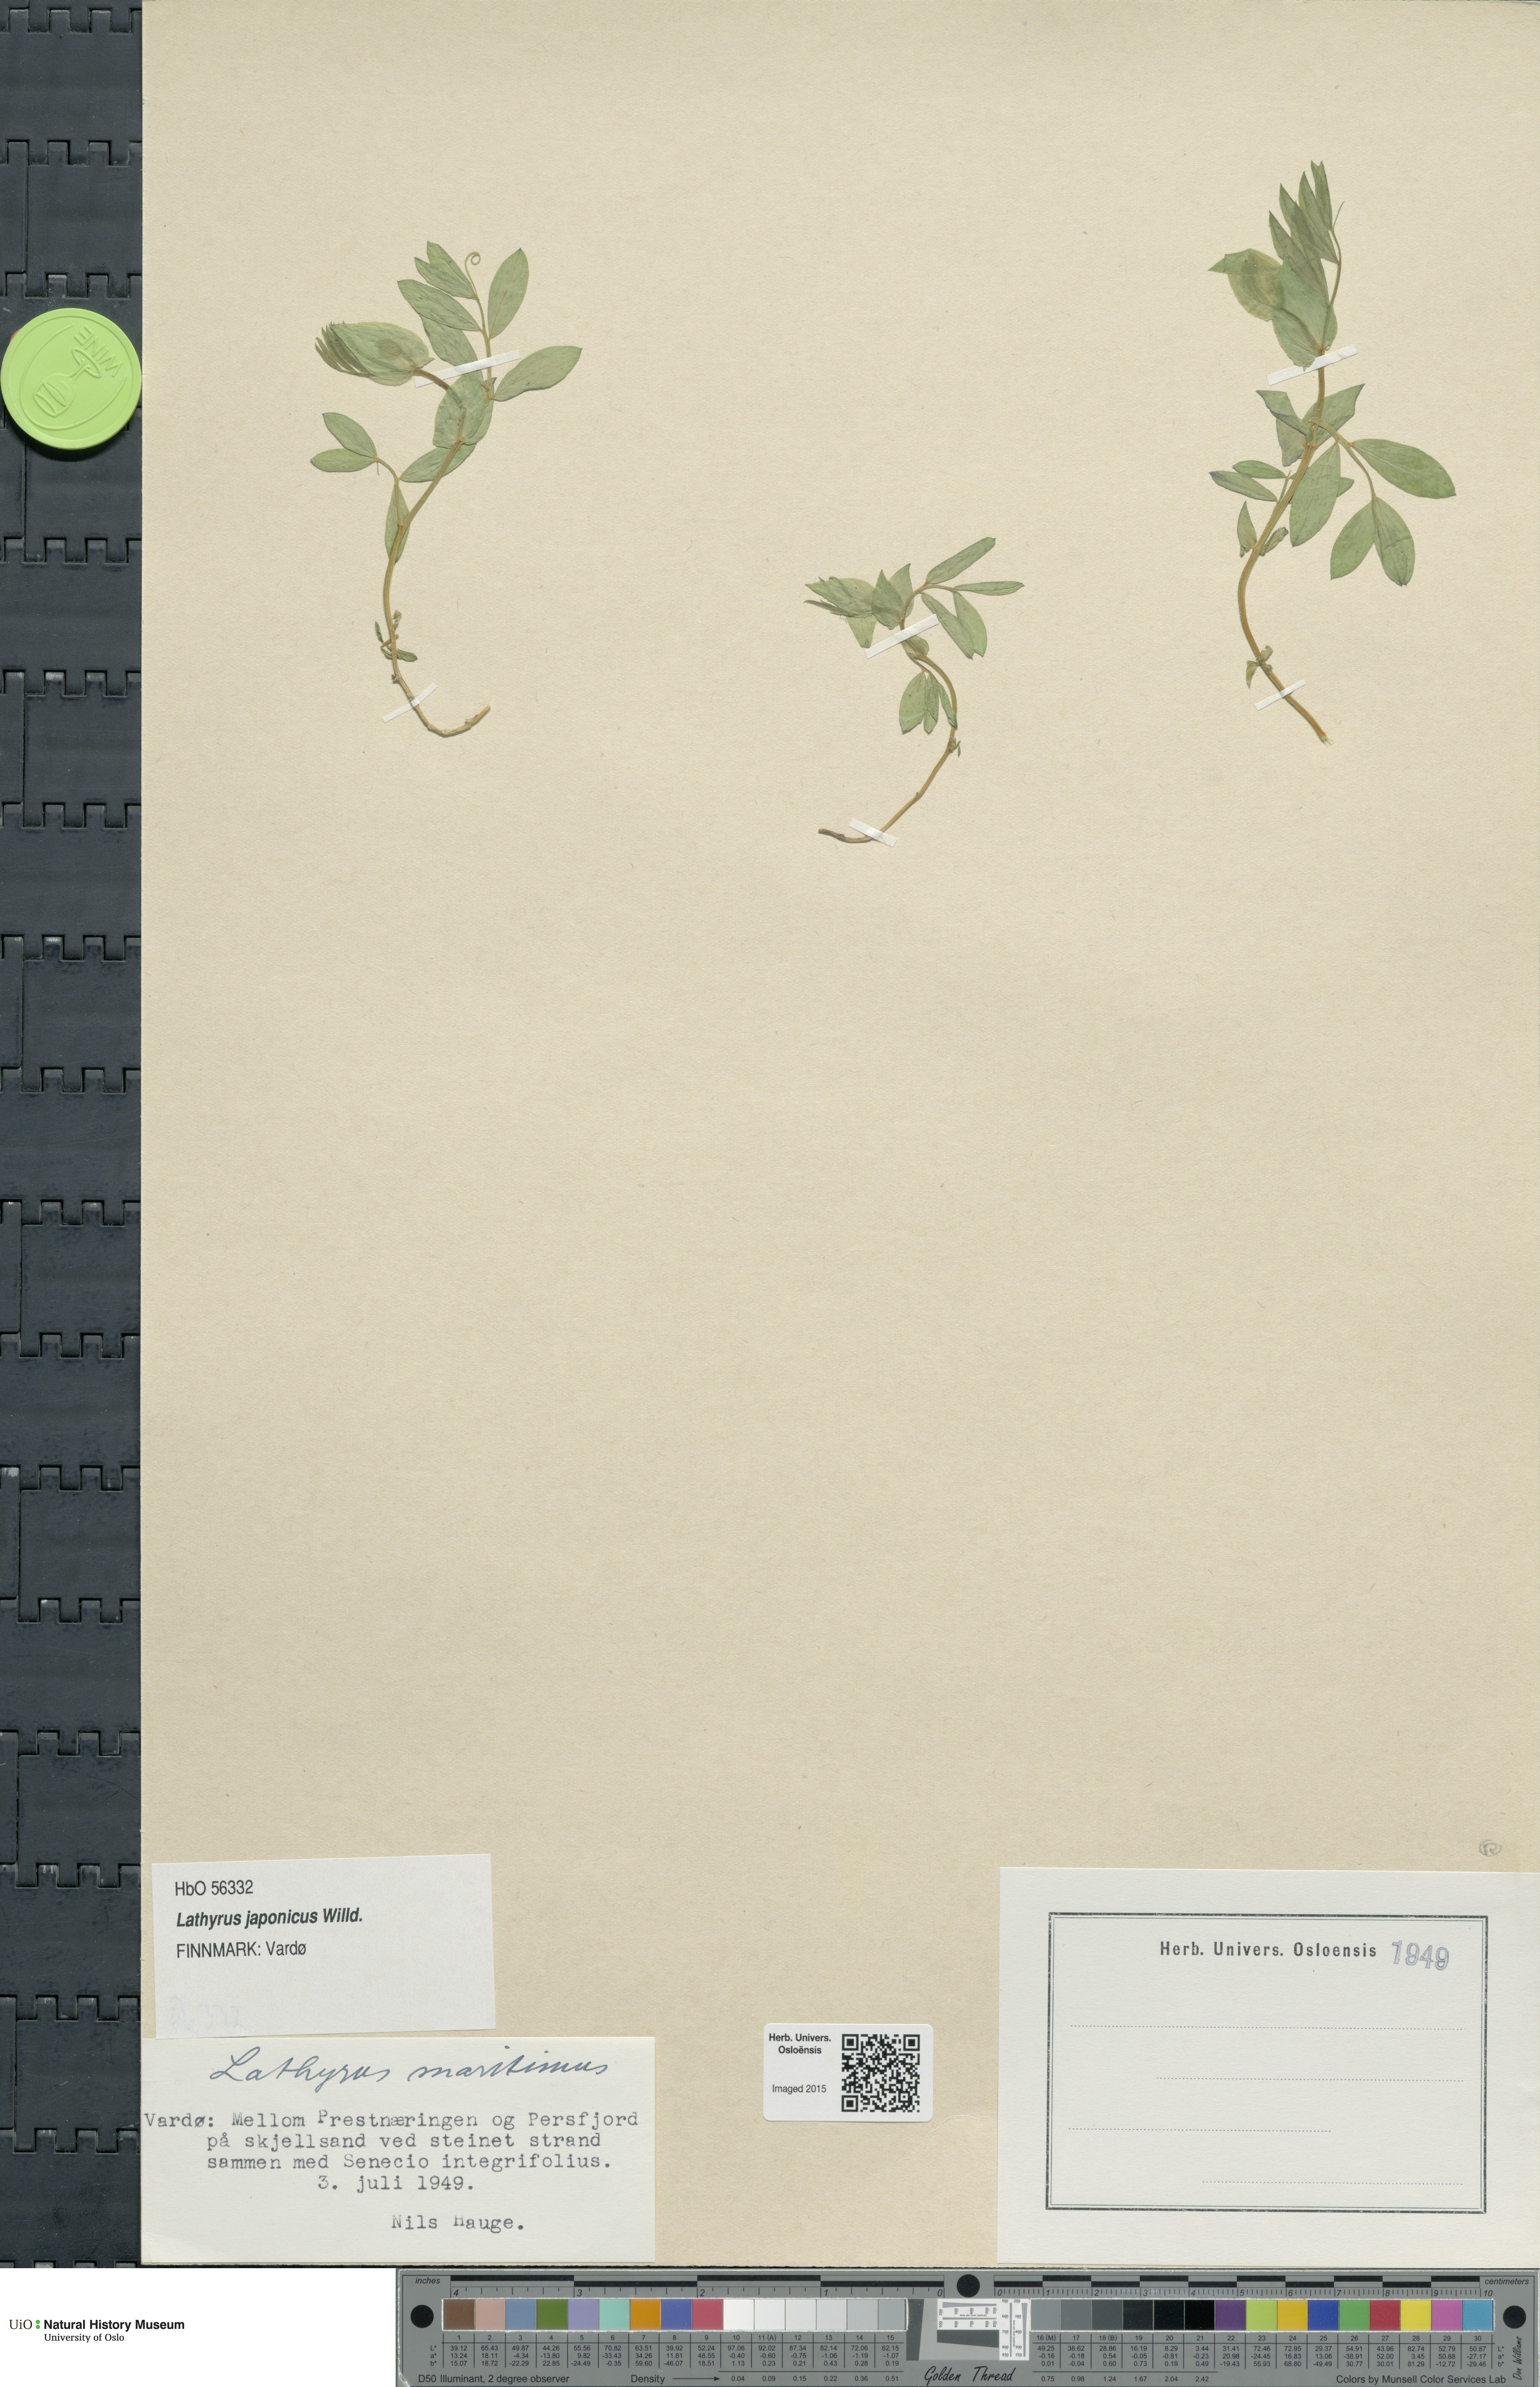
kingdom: Plantae
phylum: Tracheophyta
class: Magnoliopsida
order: Fabales
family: Fabaceae
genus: Lathyrus
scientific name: Lathyrus
